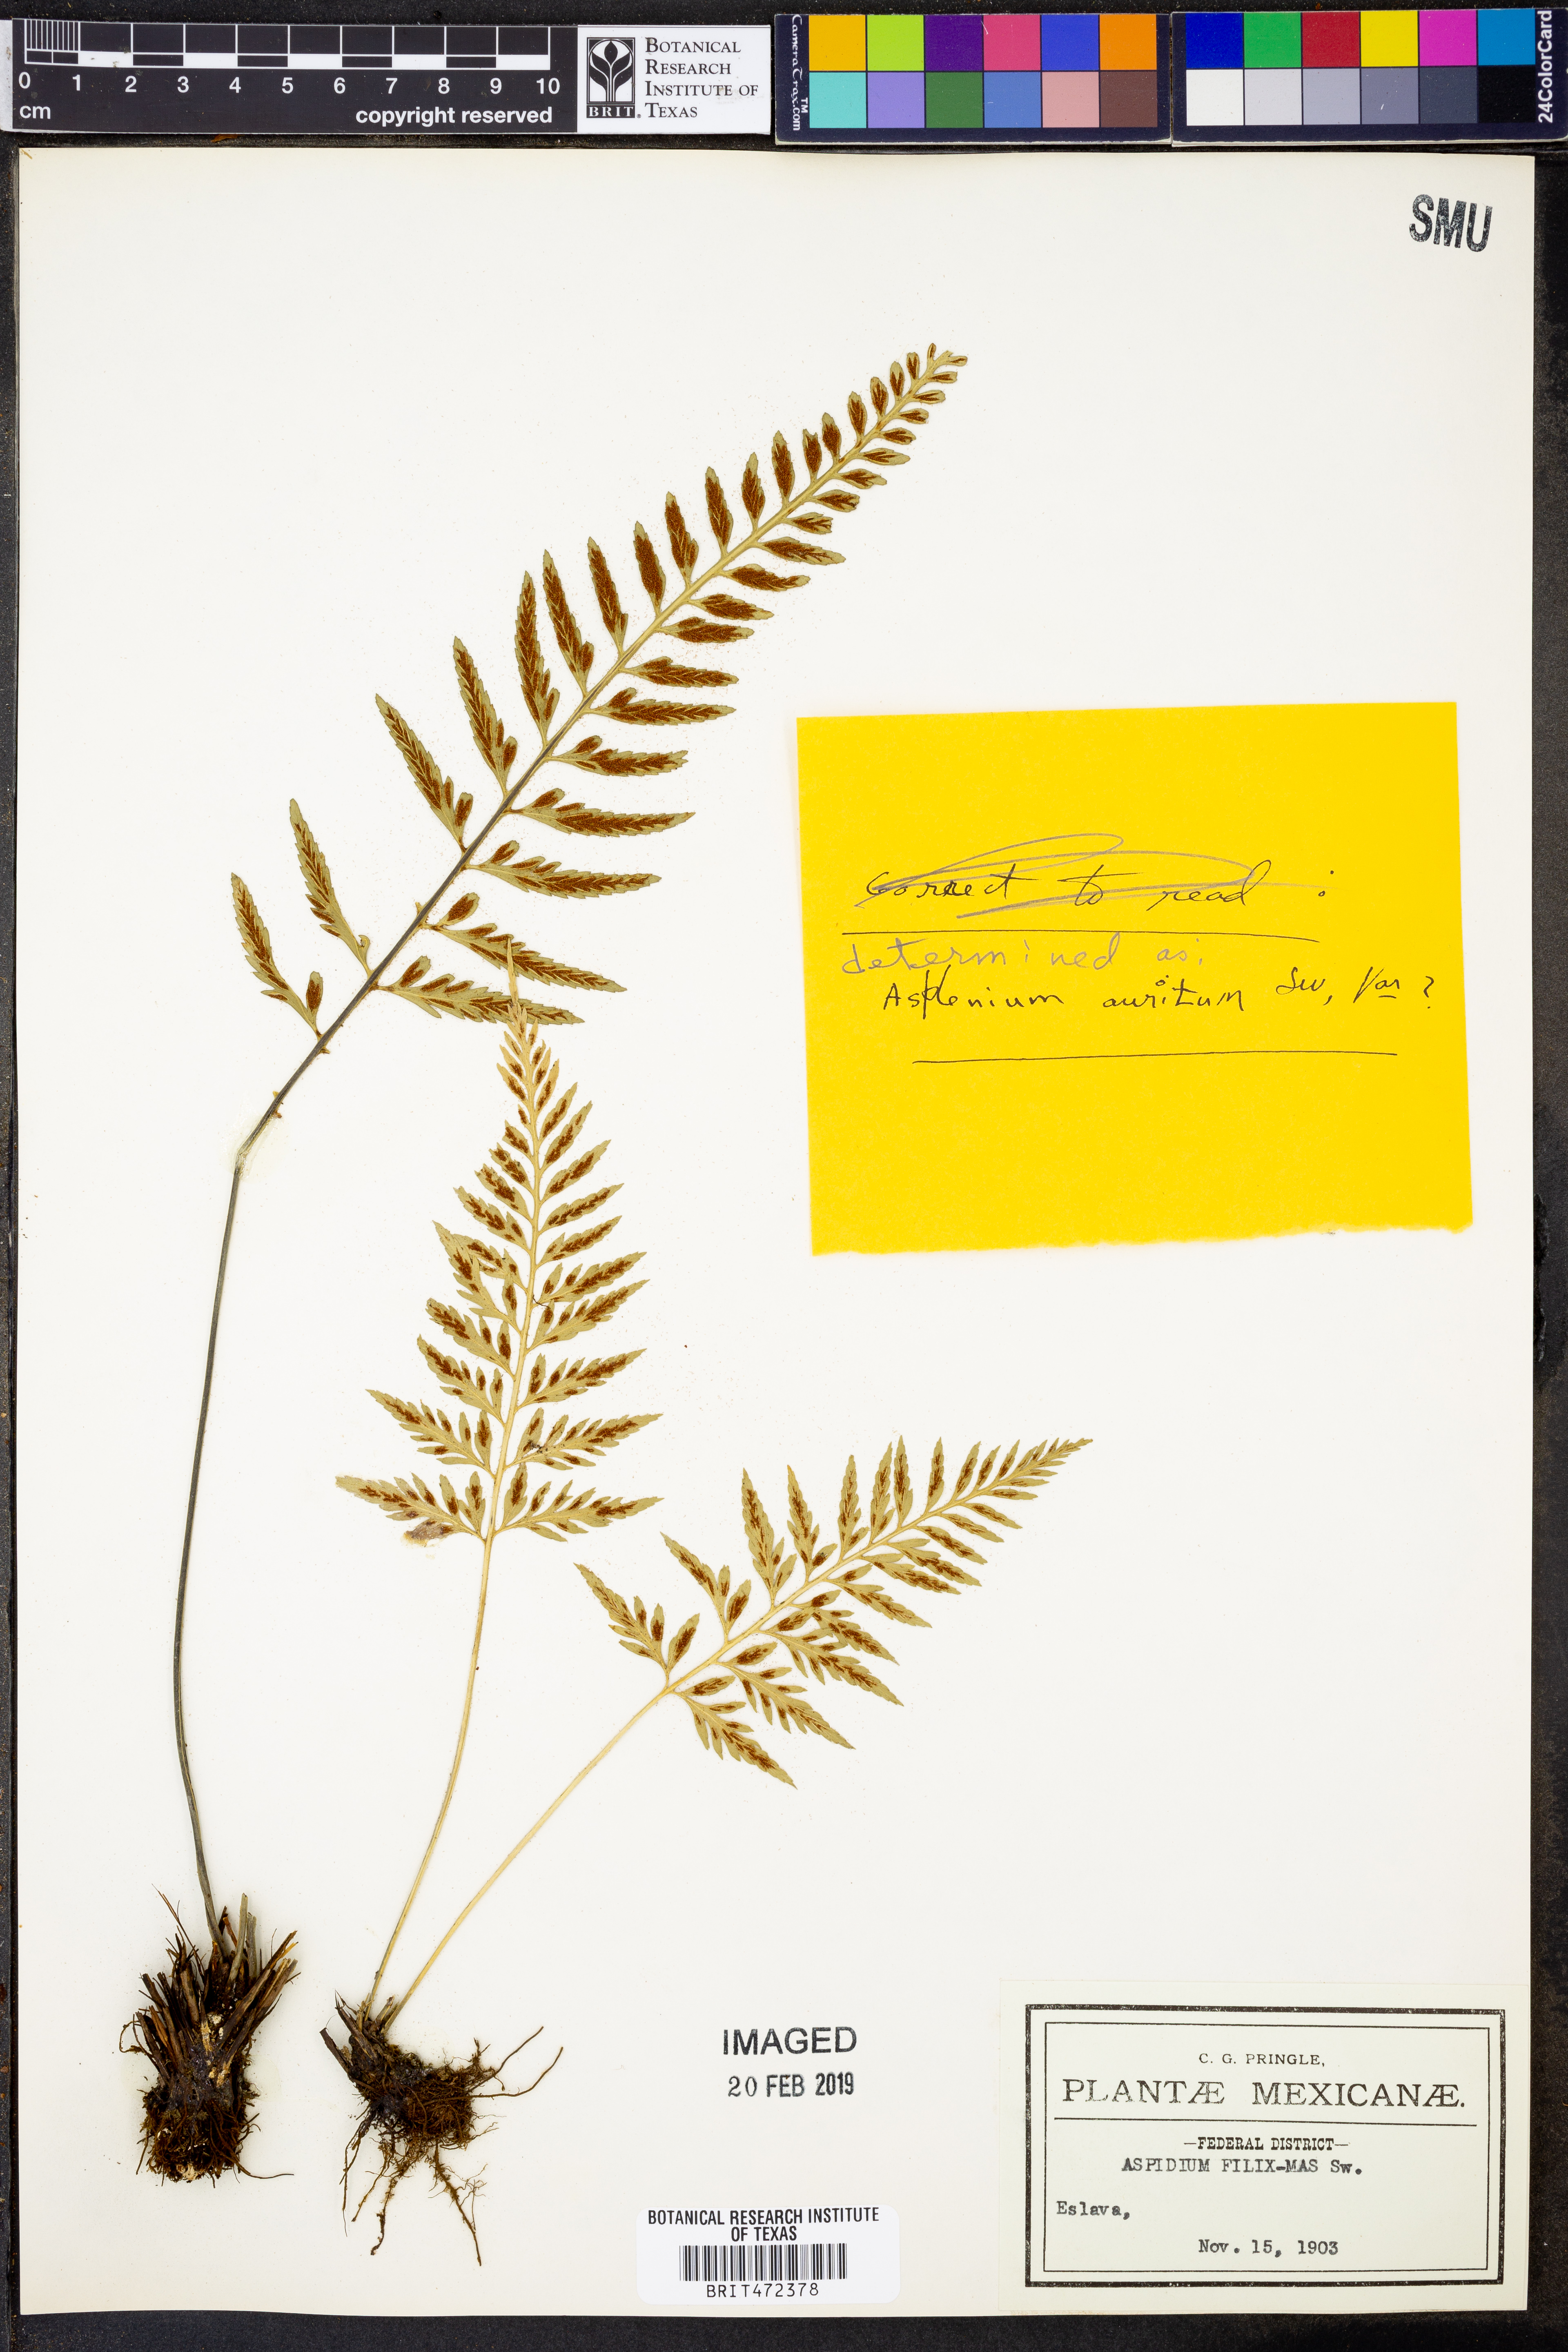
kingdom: Plantae
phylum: Tracheophyta
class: Polypodiopsida
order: Polypodiales
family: Aspleniaceae
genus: Asplenium
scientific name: Asplenium bipartitum
